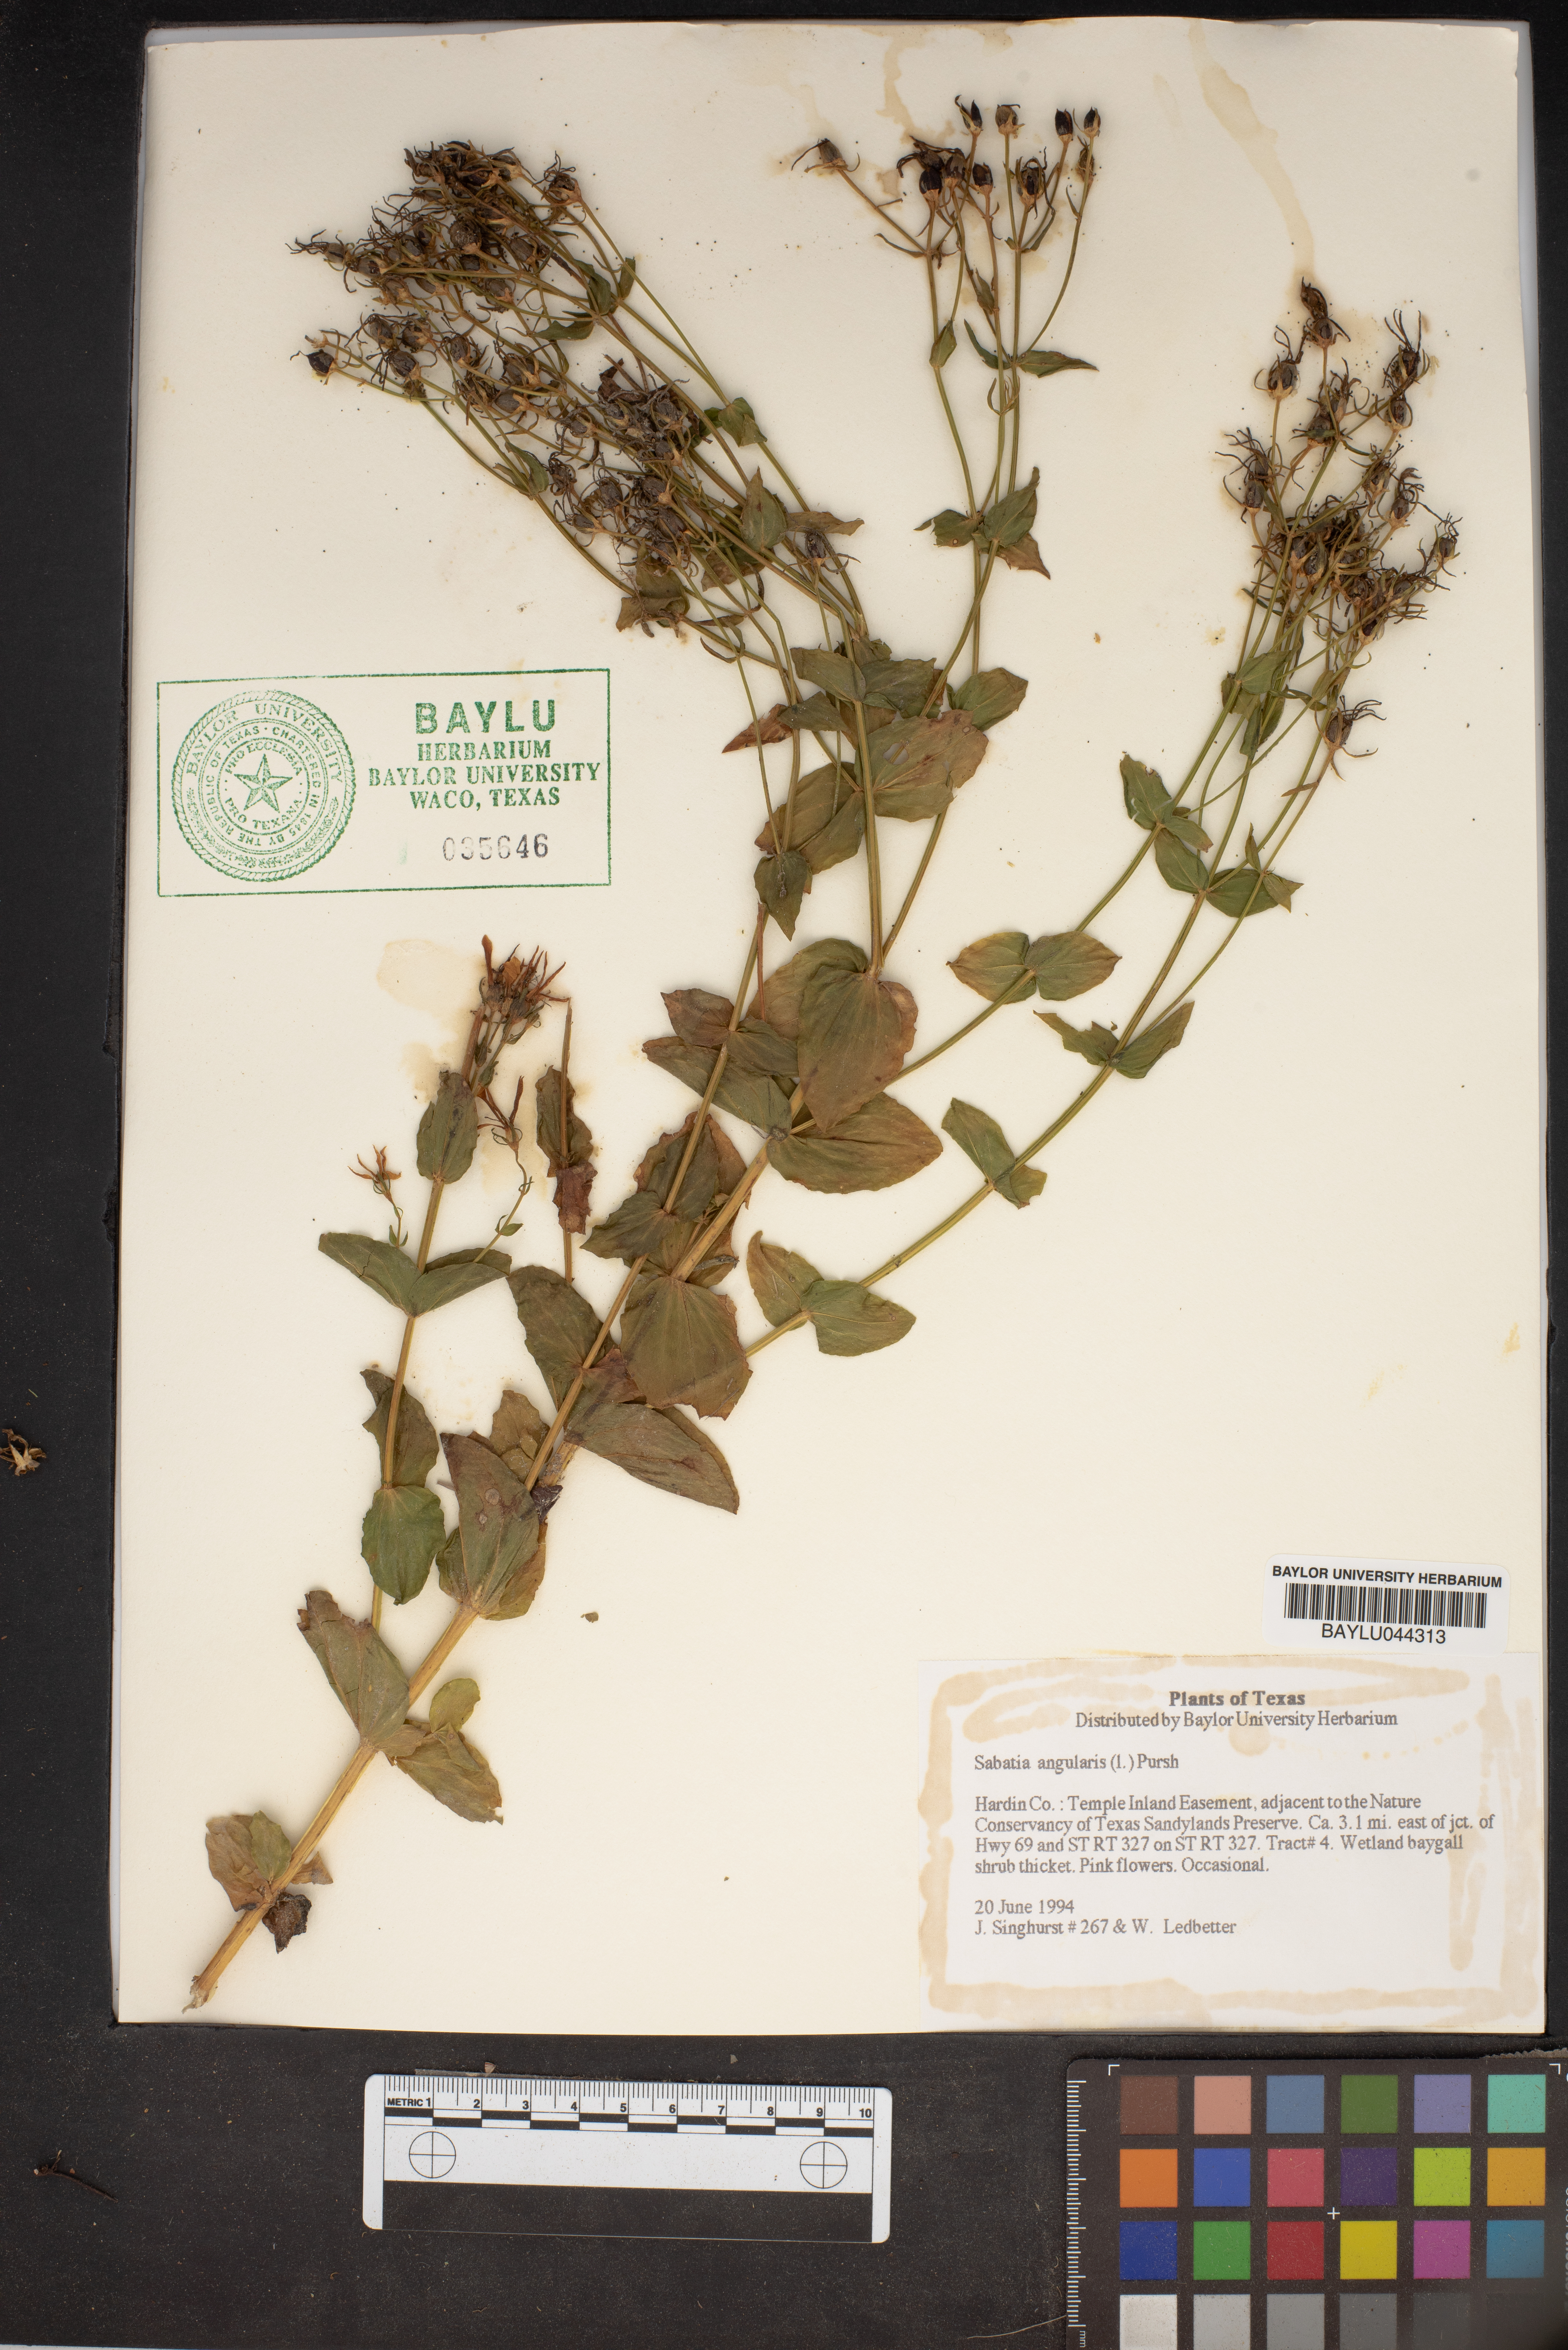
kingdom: Plantae
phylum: Tracheophyta
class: Magnoliopsida
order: Gentianales
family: Gentianaceae
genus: Sabatia
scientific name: Sabatia angularis
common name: Rose-pink
